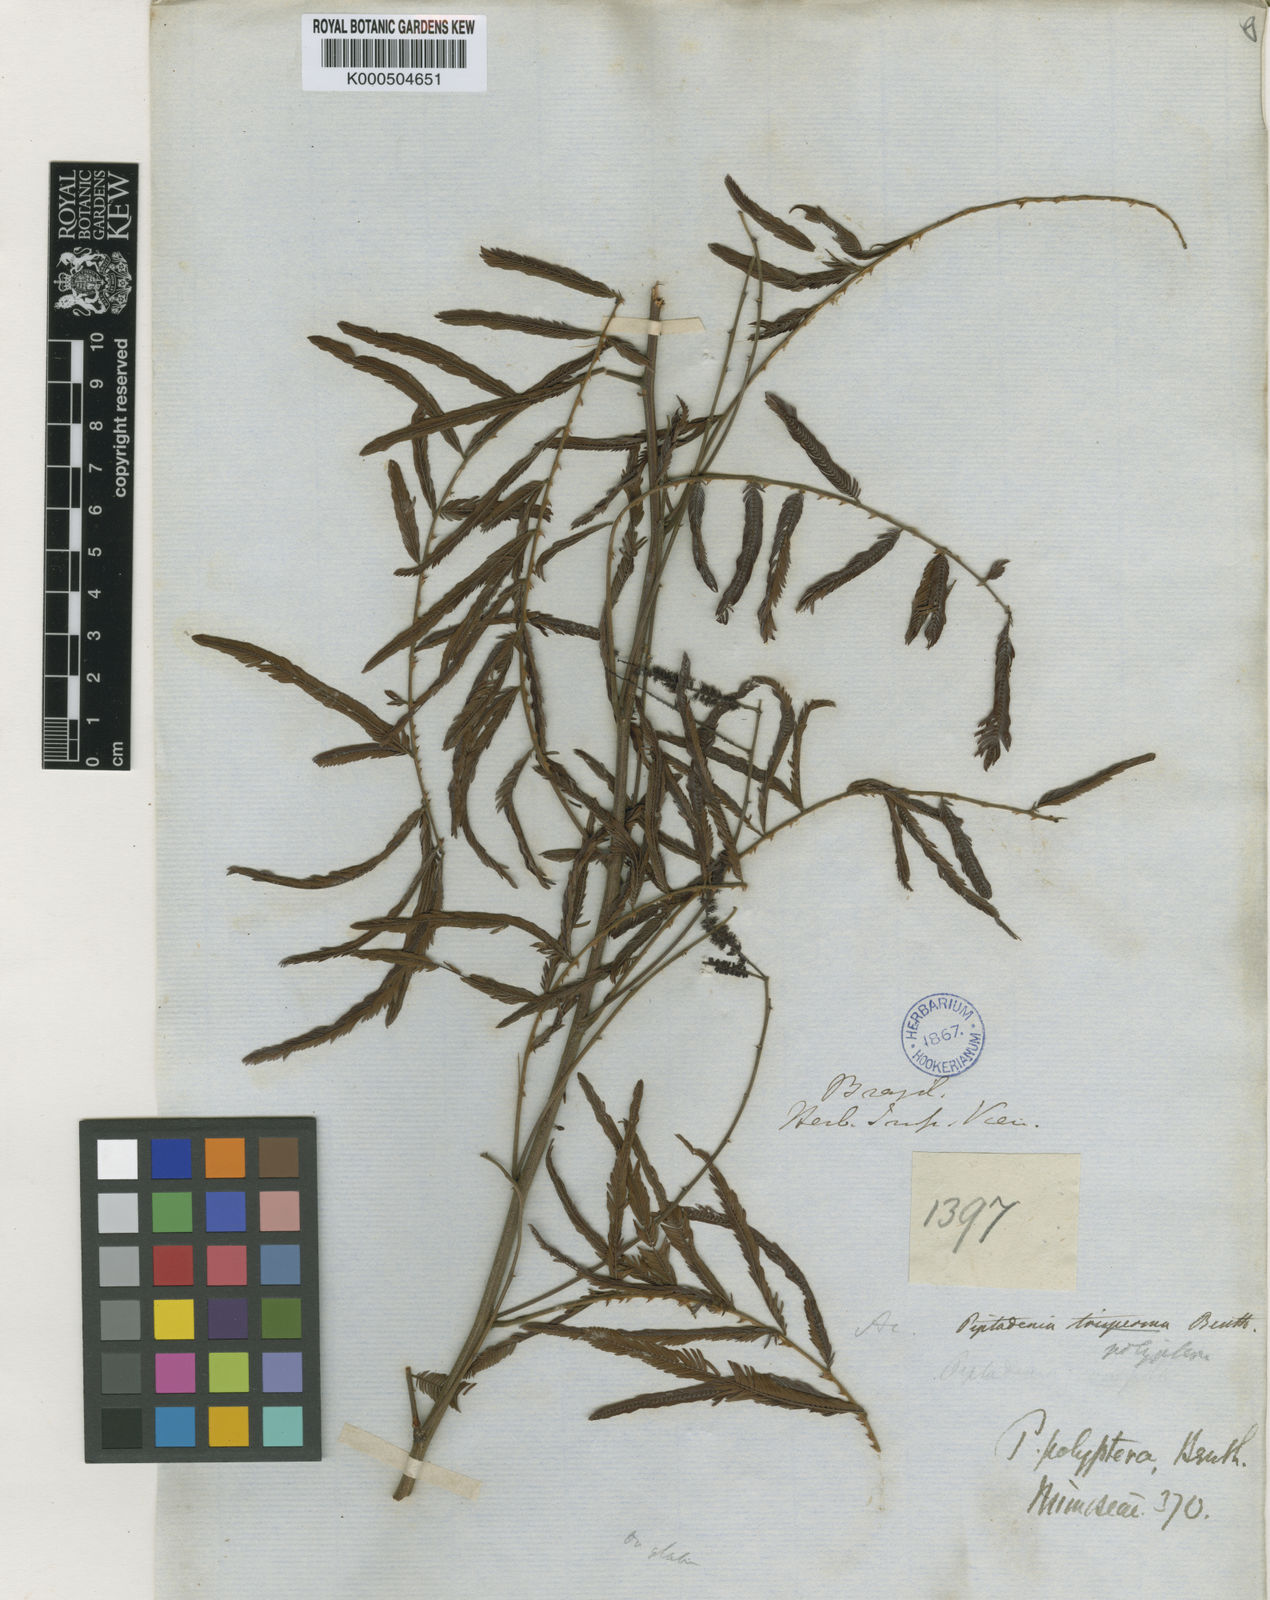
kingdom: Plantae
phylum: Tracheophyta
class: Magnoliopsida
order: Fabales
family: Fabaceae
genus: Piptadenia
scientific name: Piptadenia trisperma
